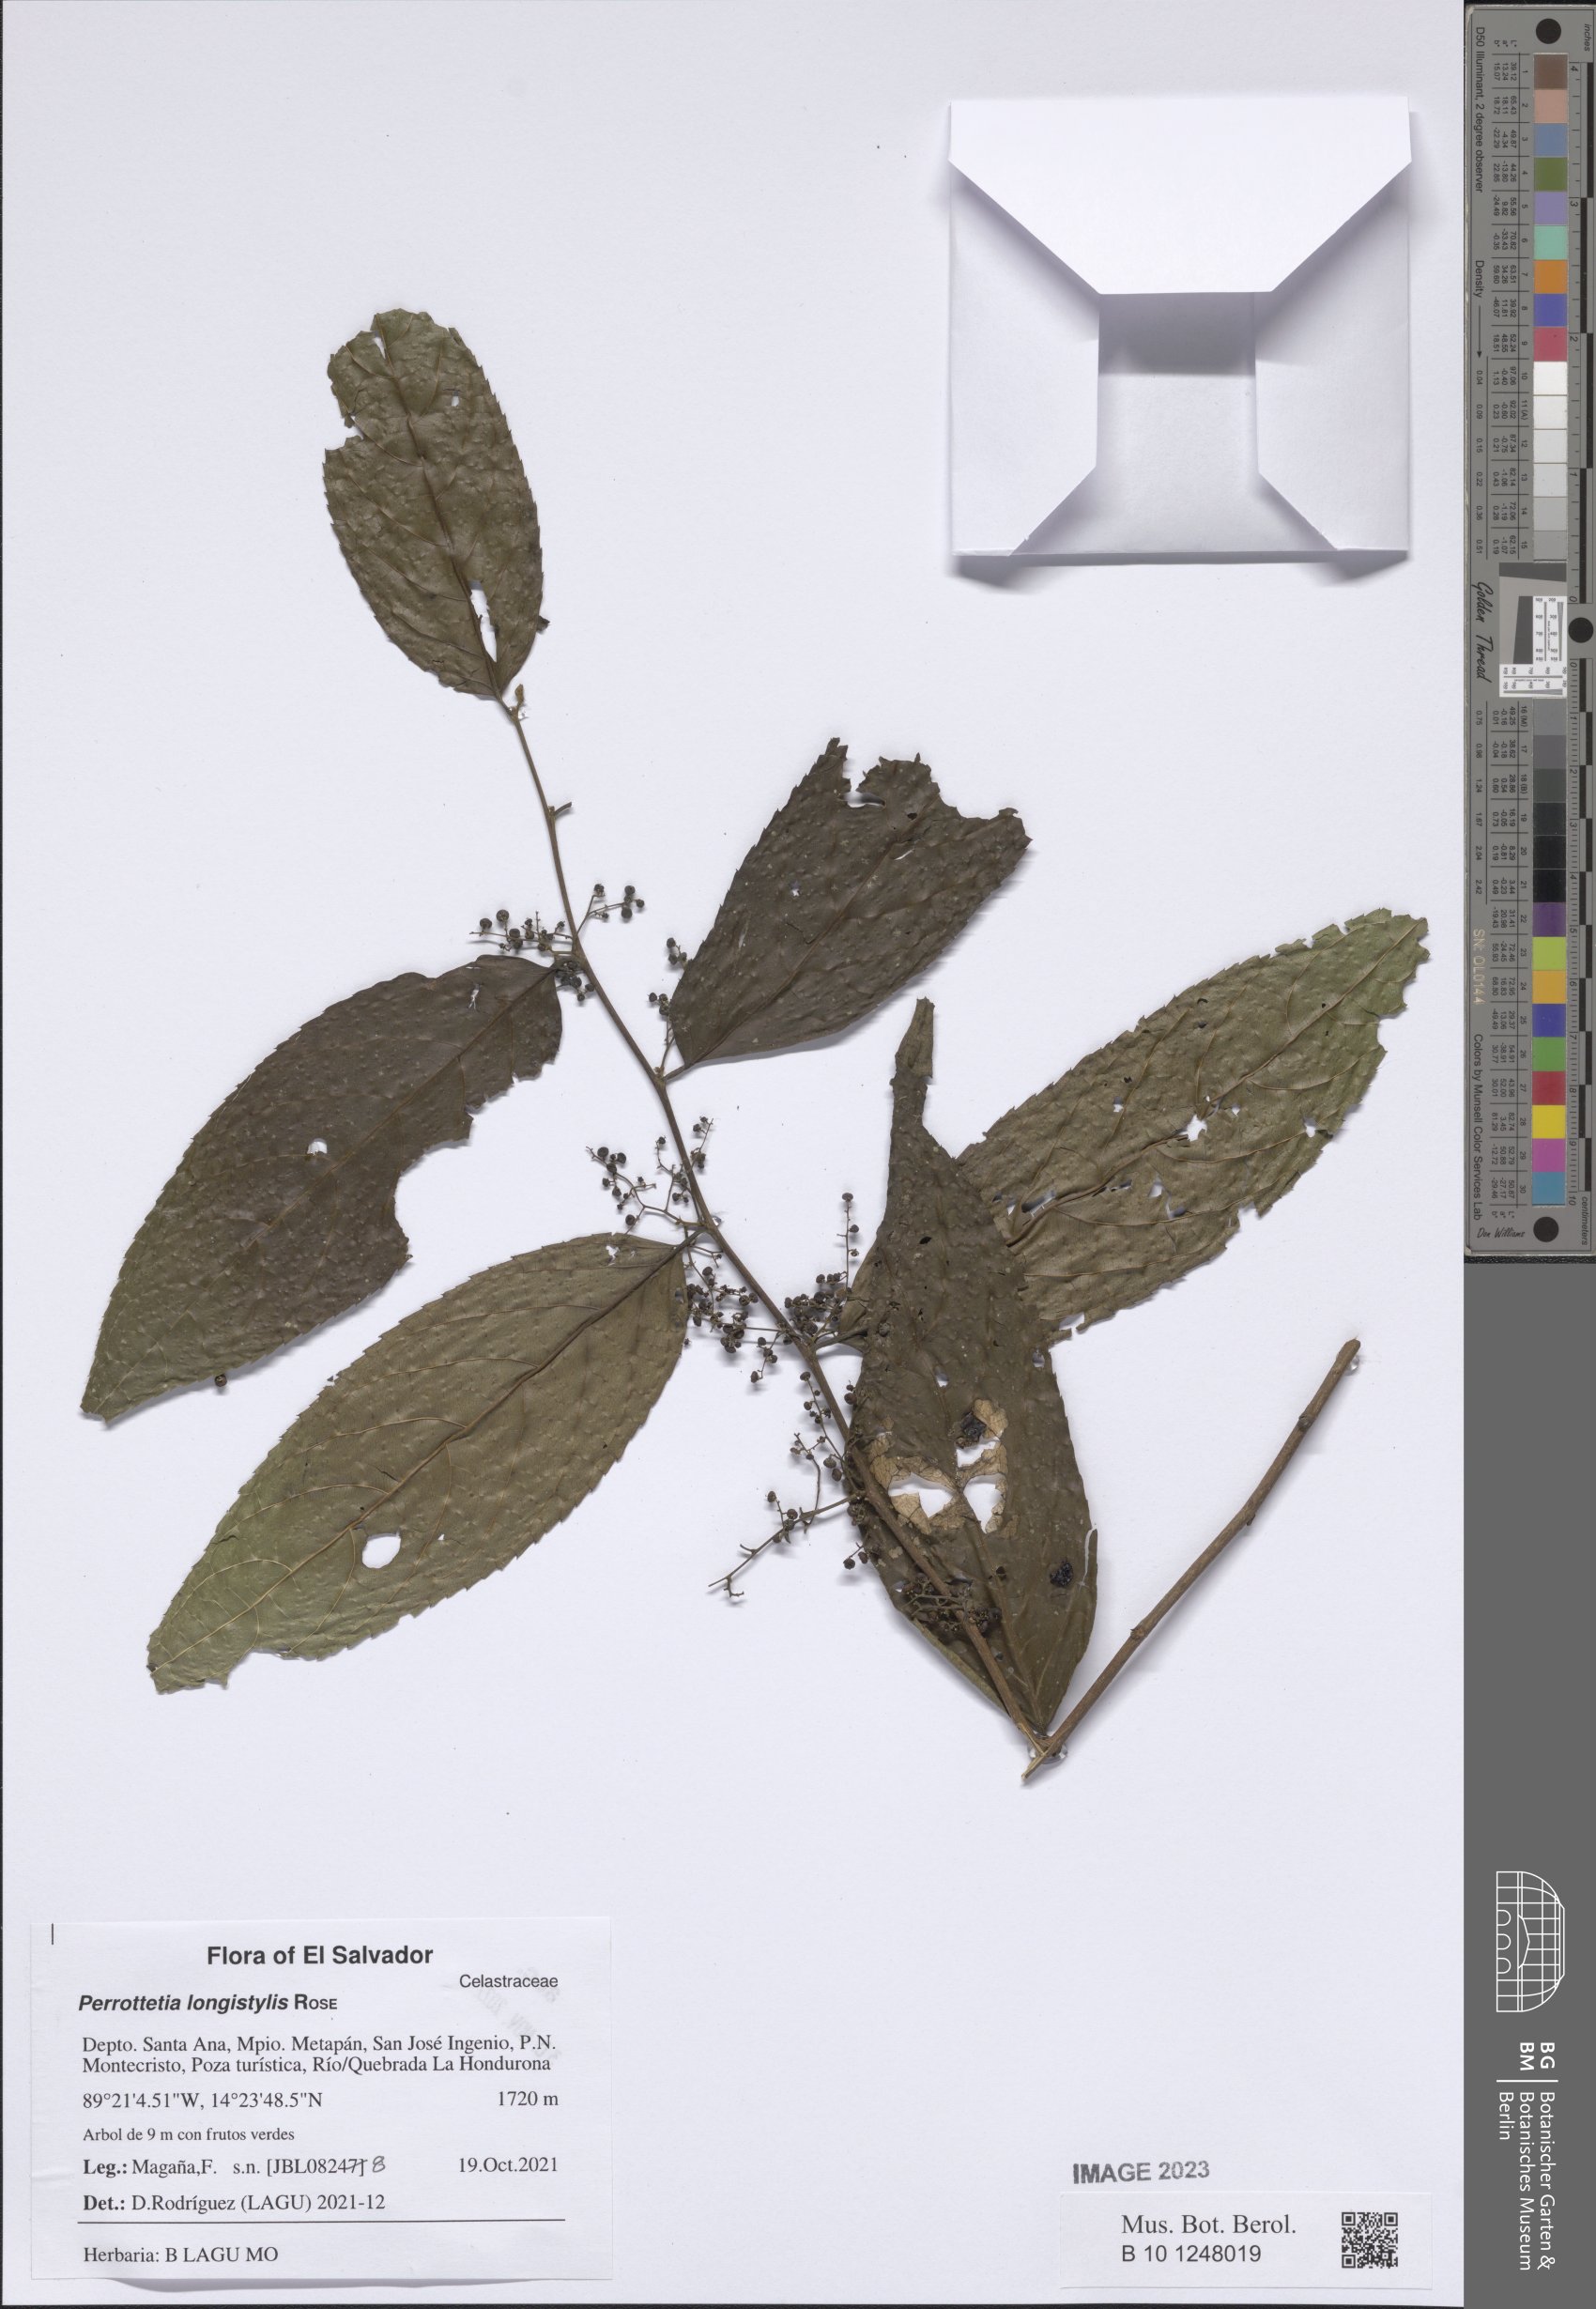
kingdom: Plantae
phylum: Tracheophyta
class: Magnoliopsida
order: Huerteales
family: Dipentodontaceae
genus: Perrottetia
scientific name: Perrottetia longistylis
